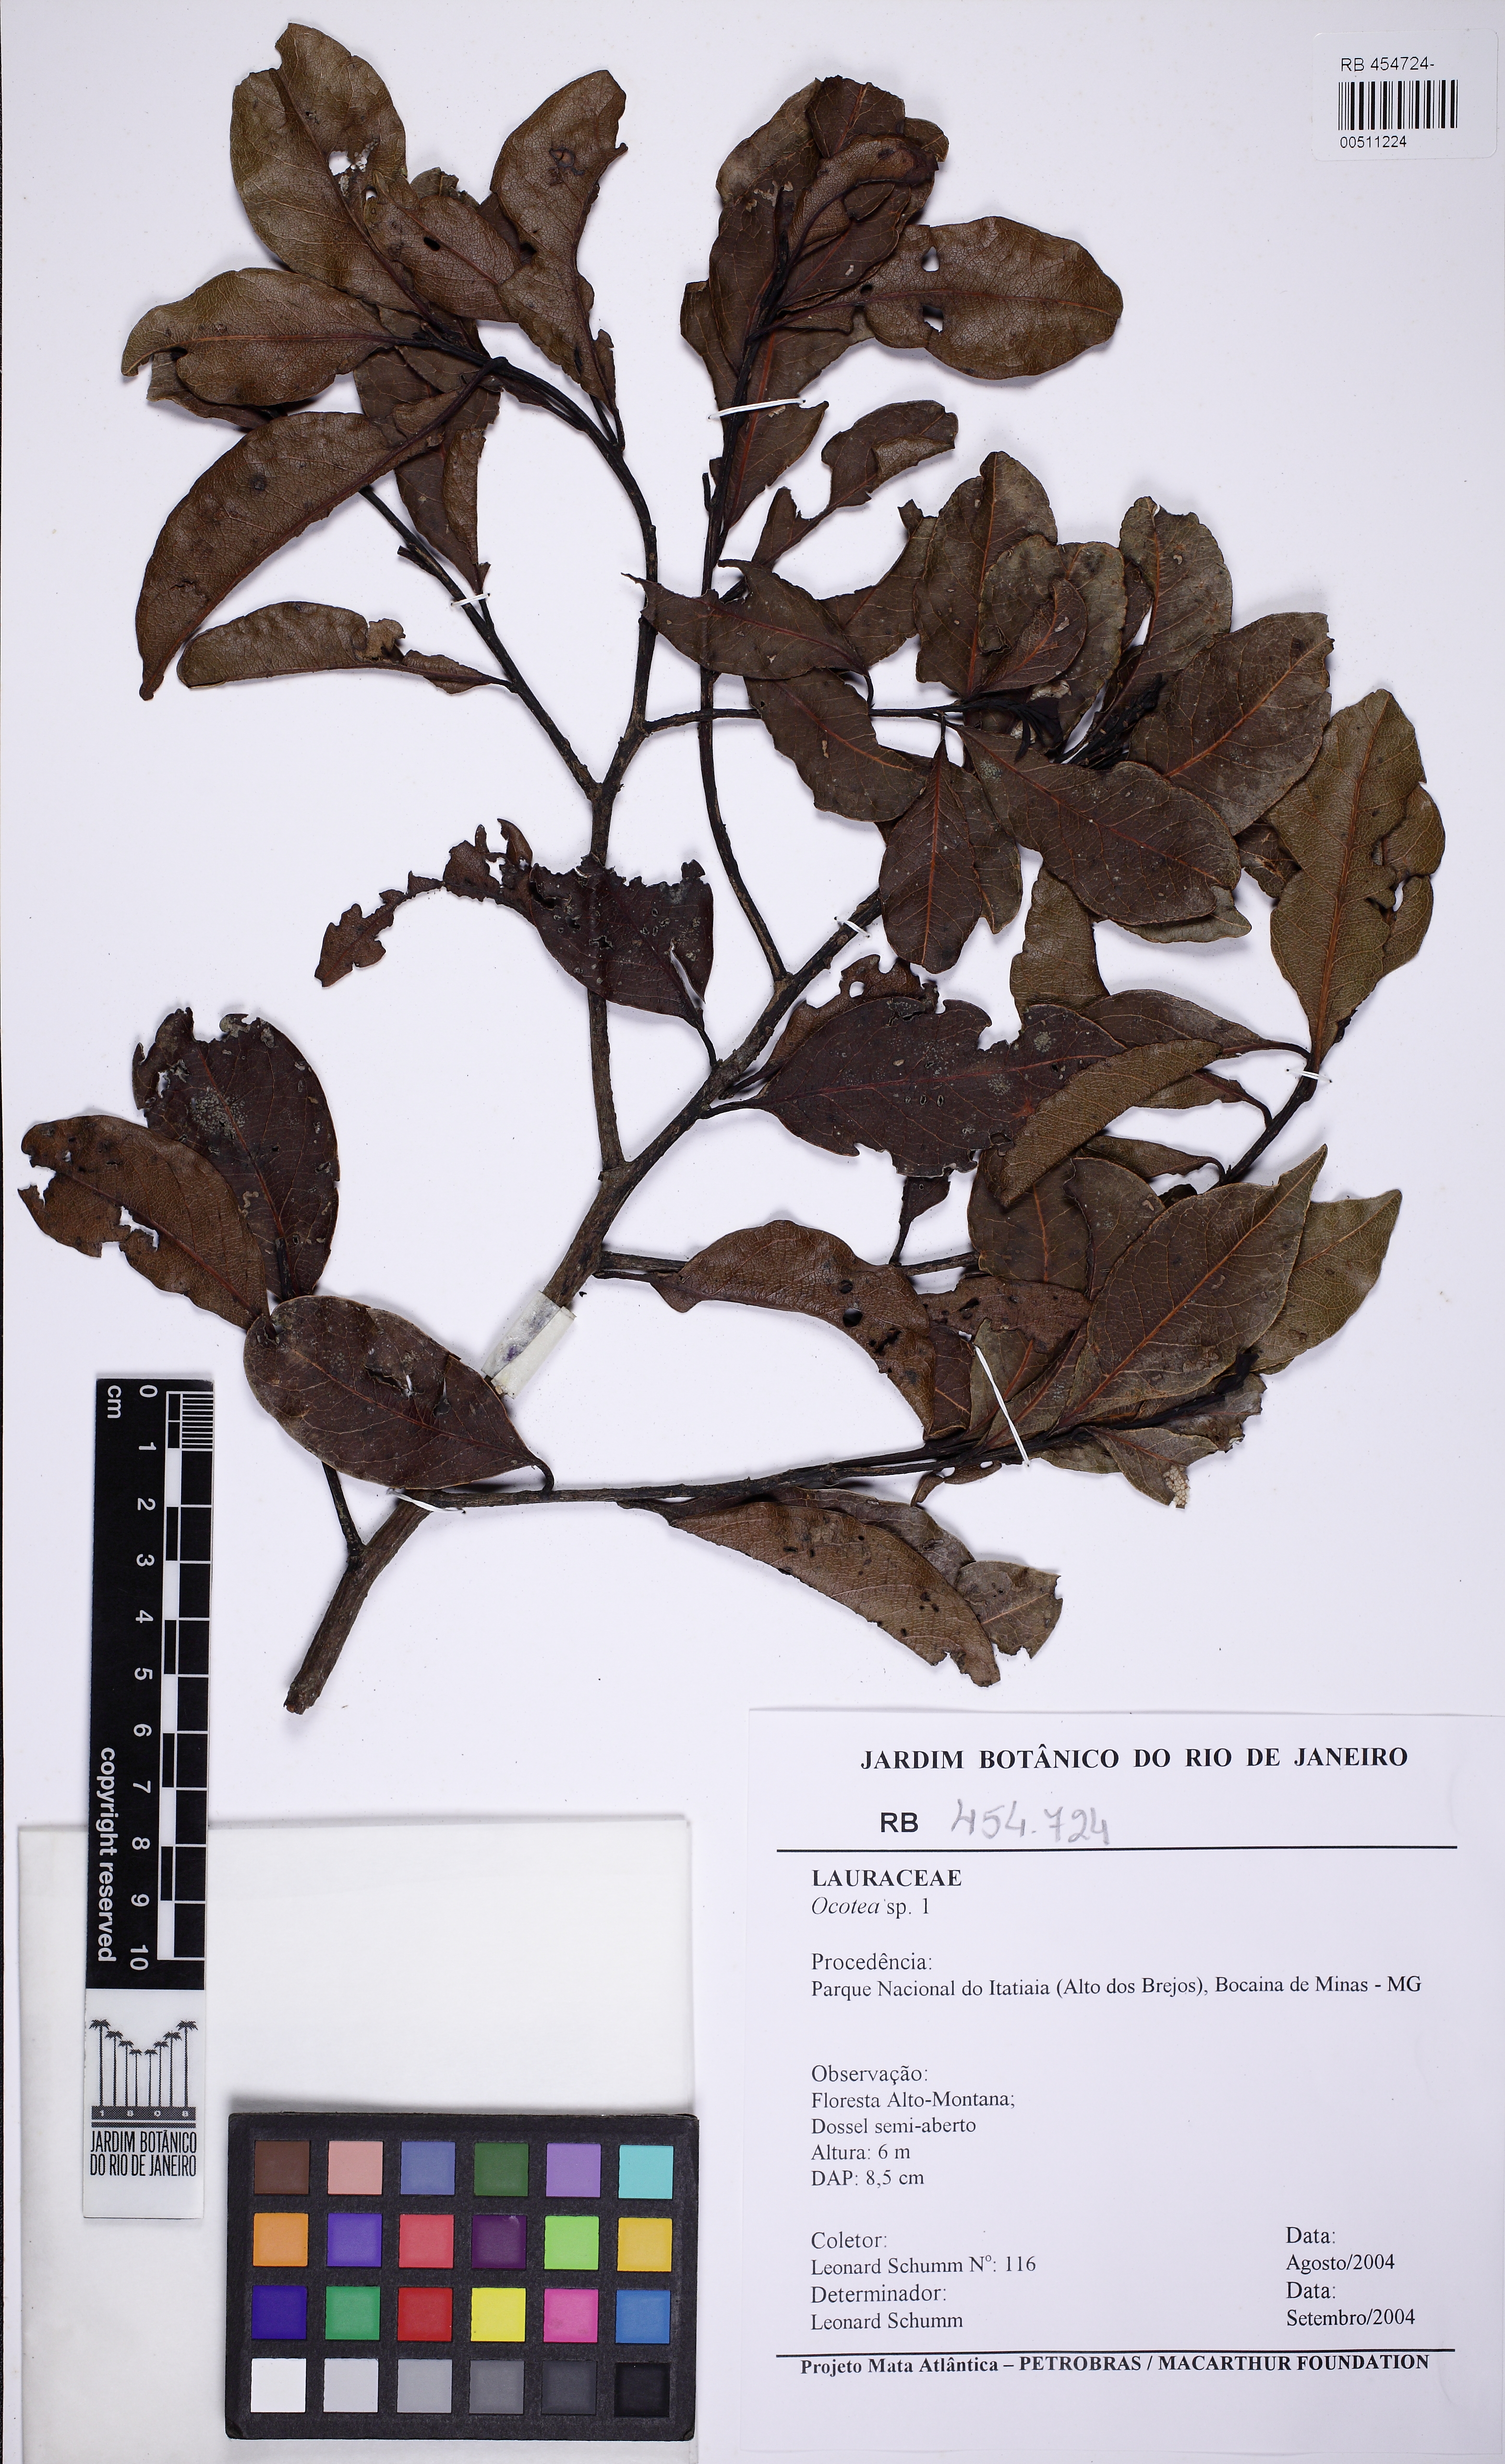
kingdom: Plantae
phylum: Tracheophyta
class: Magnoliopsida
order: Laurales
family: Lauraceae
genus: Ocotea
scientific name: Ocotea
